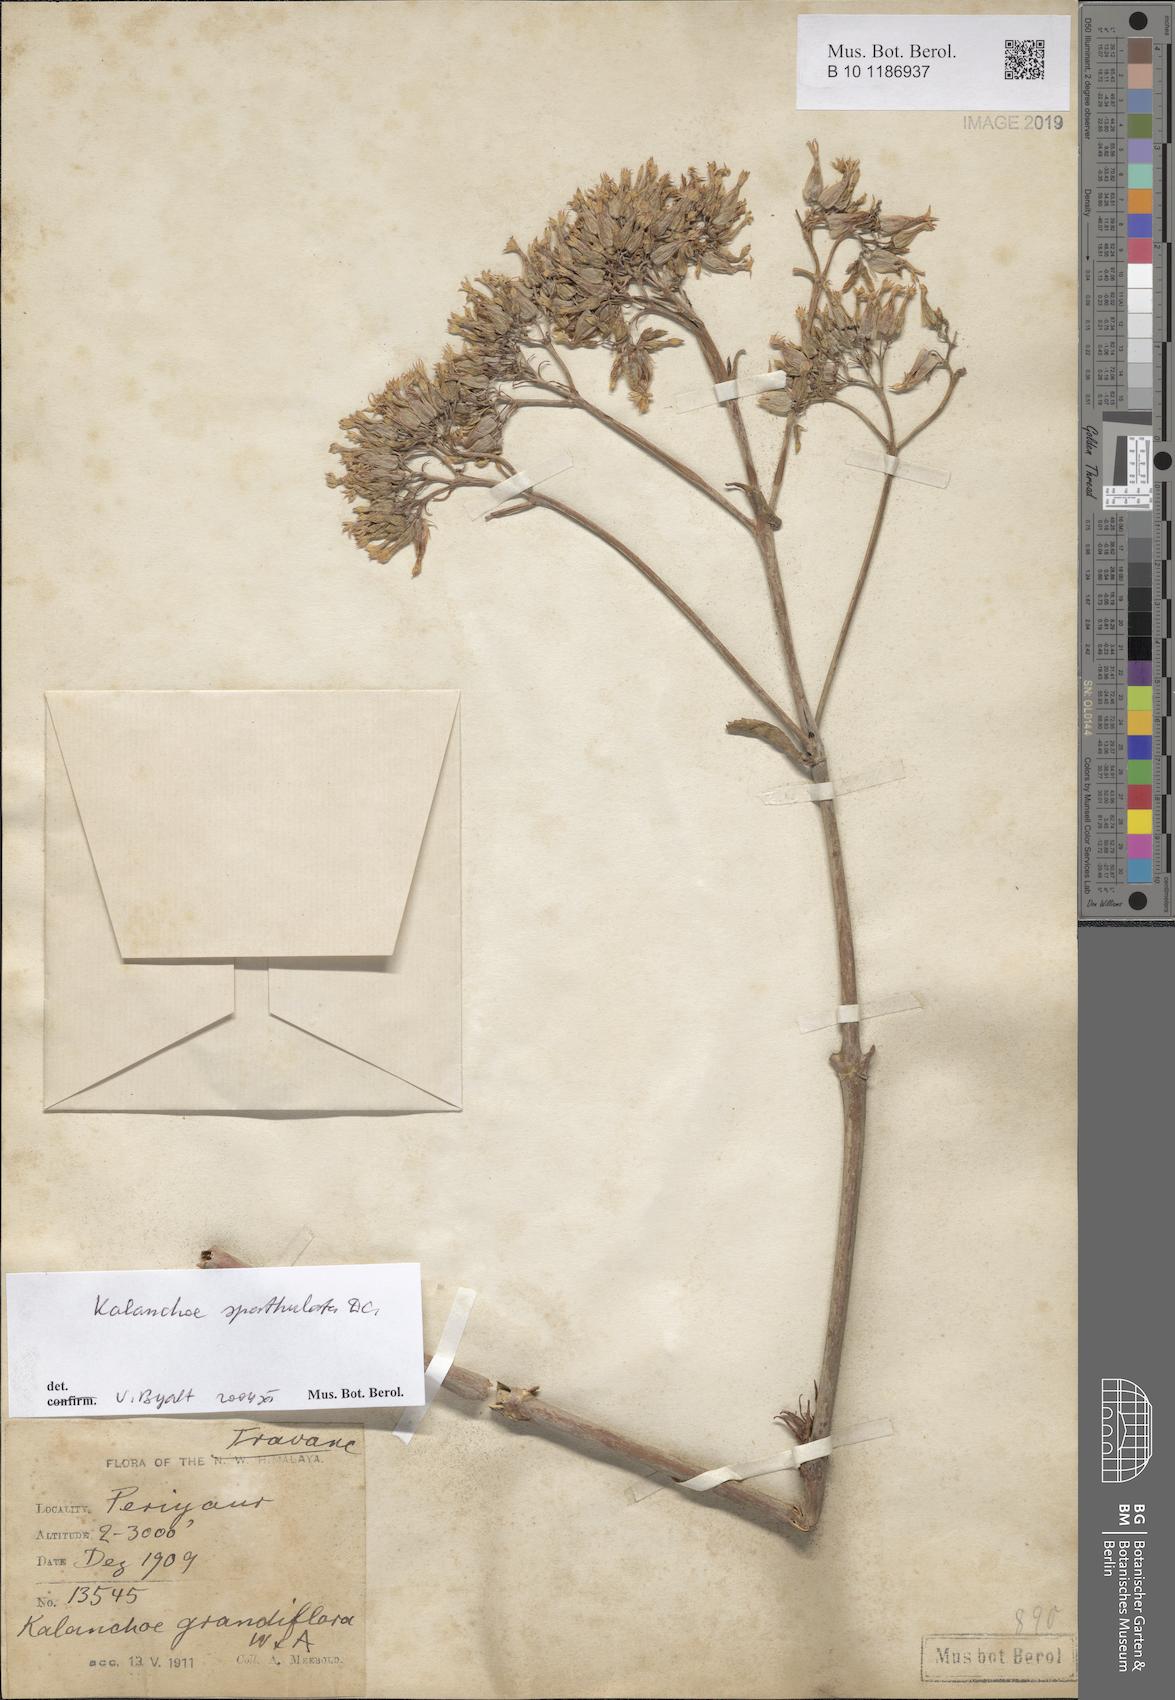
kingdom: Plantae
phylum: Tracheophyta
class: Magnoliopsida
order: Saxifragales
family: Crassulaceae
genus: Kalanchoe
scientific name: Kalanchoe integra
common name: Neverdie
